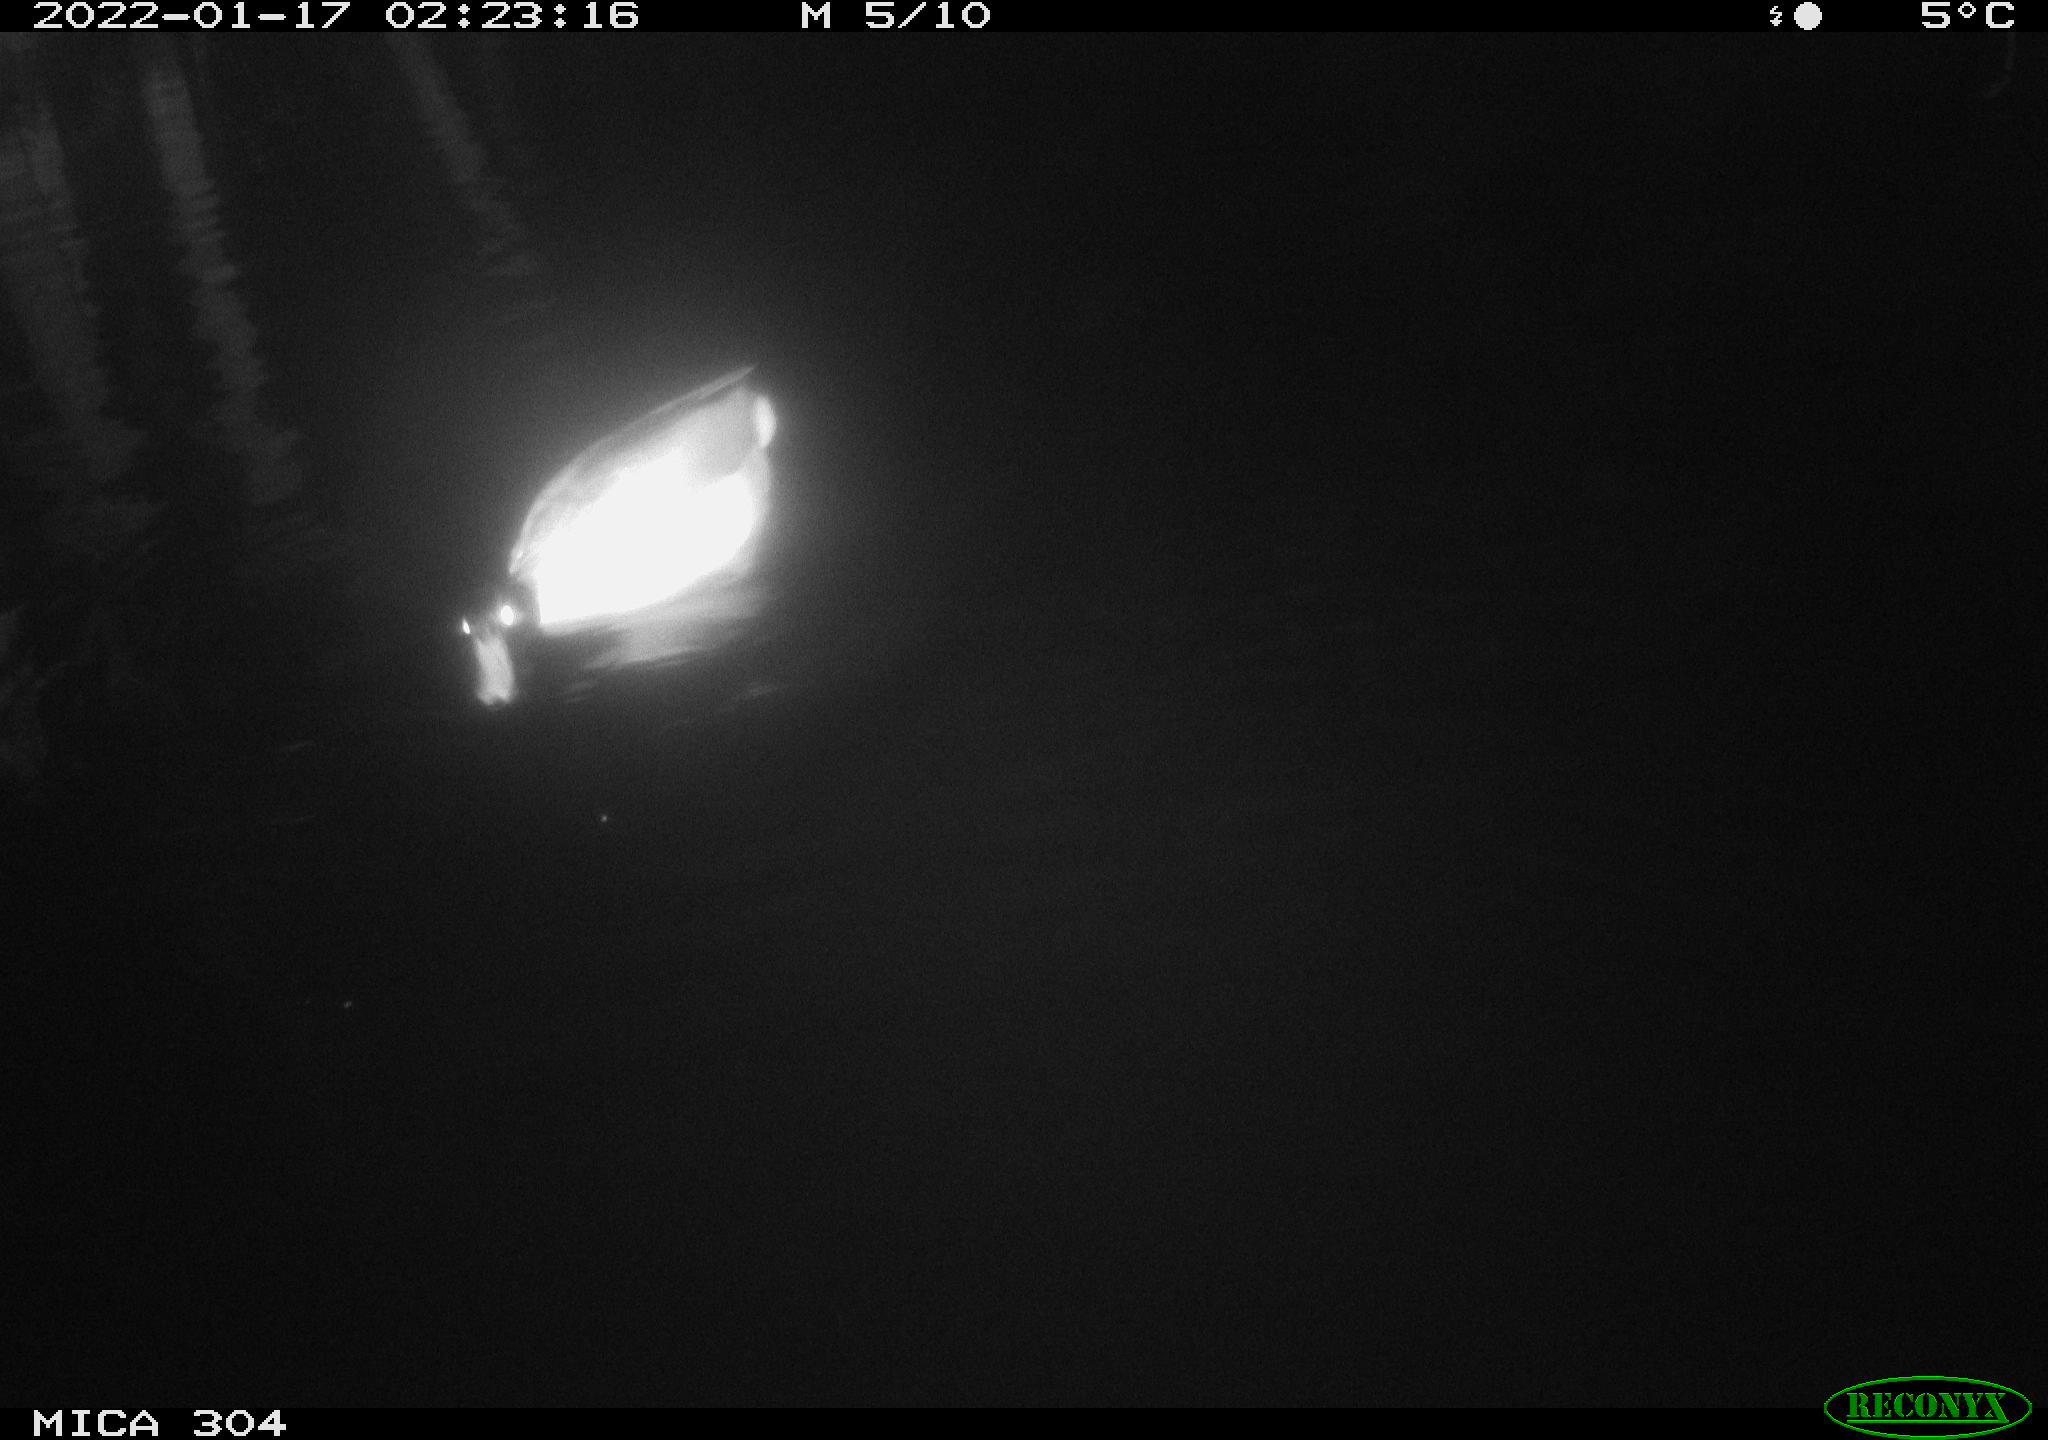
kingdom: Animalia
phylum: Chordata
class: Aves
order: Anseriformes
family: Anatidae
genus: Anas
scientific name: Anas
